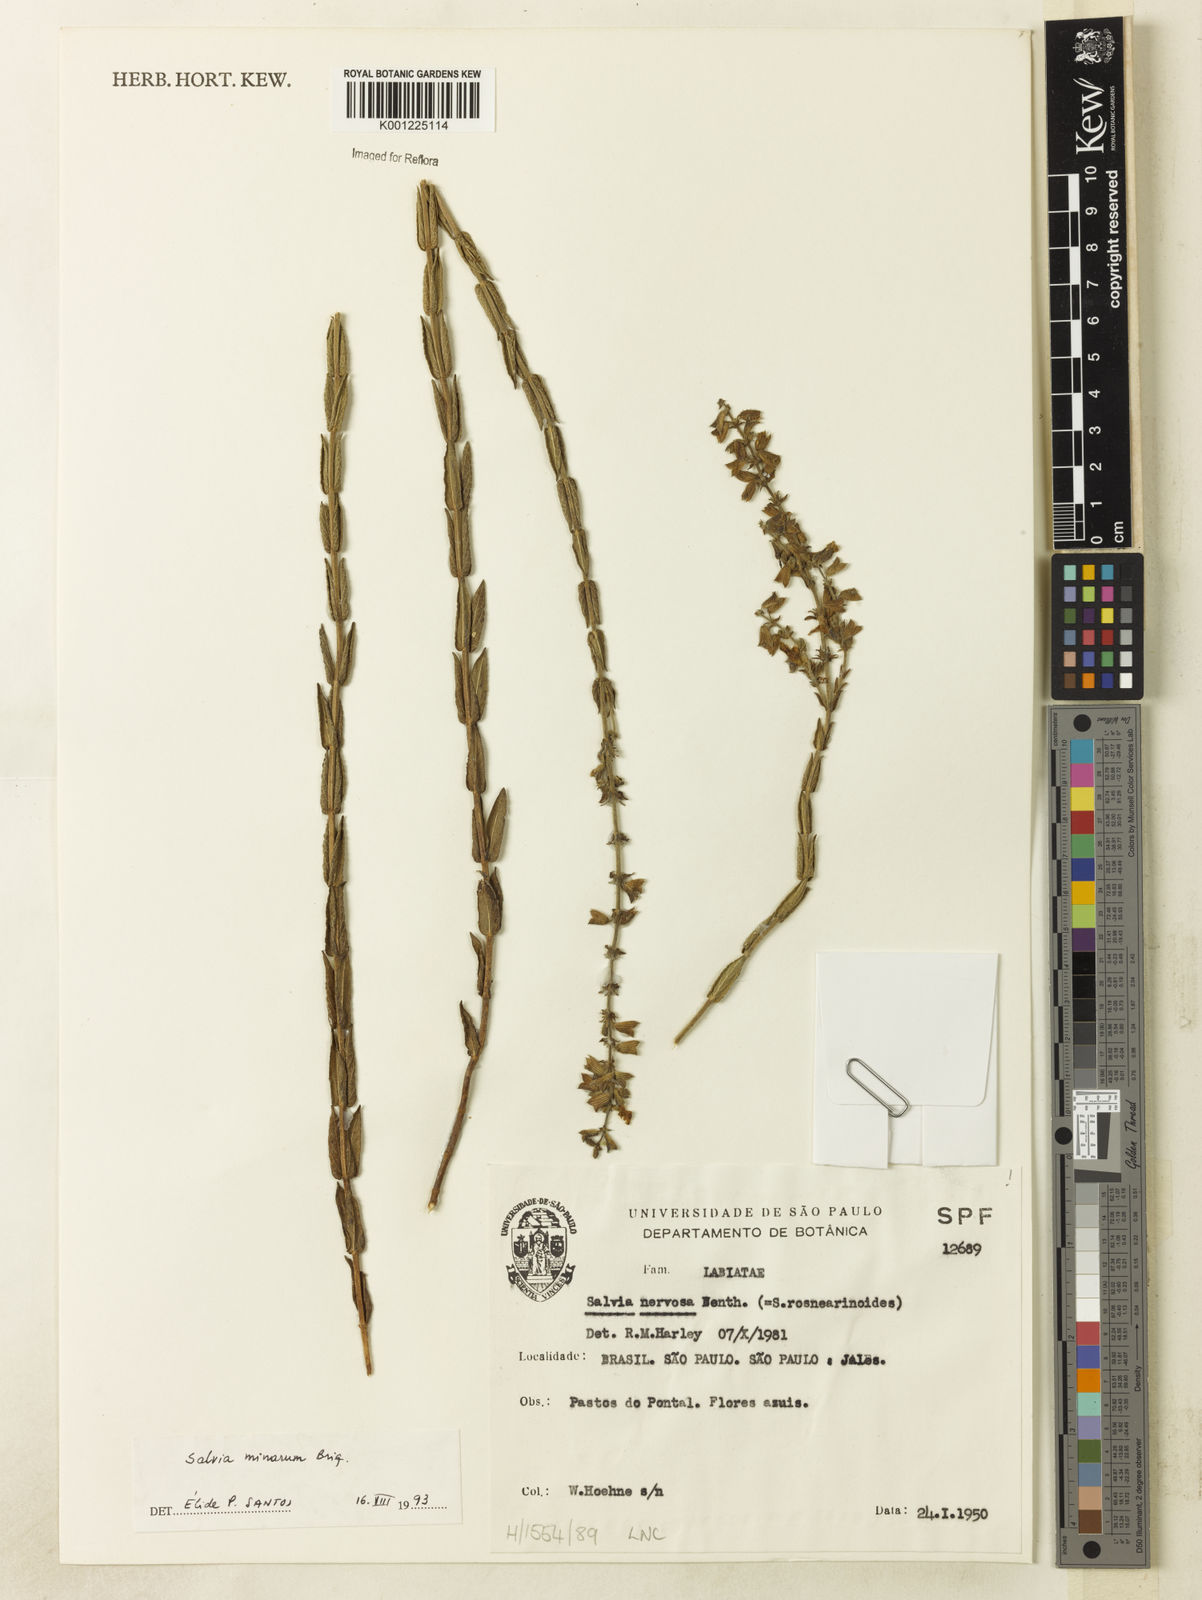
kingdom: Plantae
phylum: Tracheophyta
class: Magnoliopsida
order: Lamiales
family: Lamiaceae
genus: Salvia
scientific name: Salvia minarum
